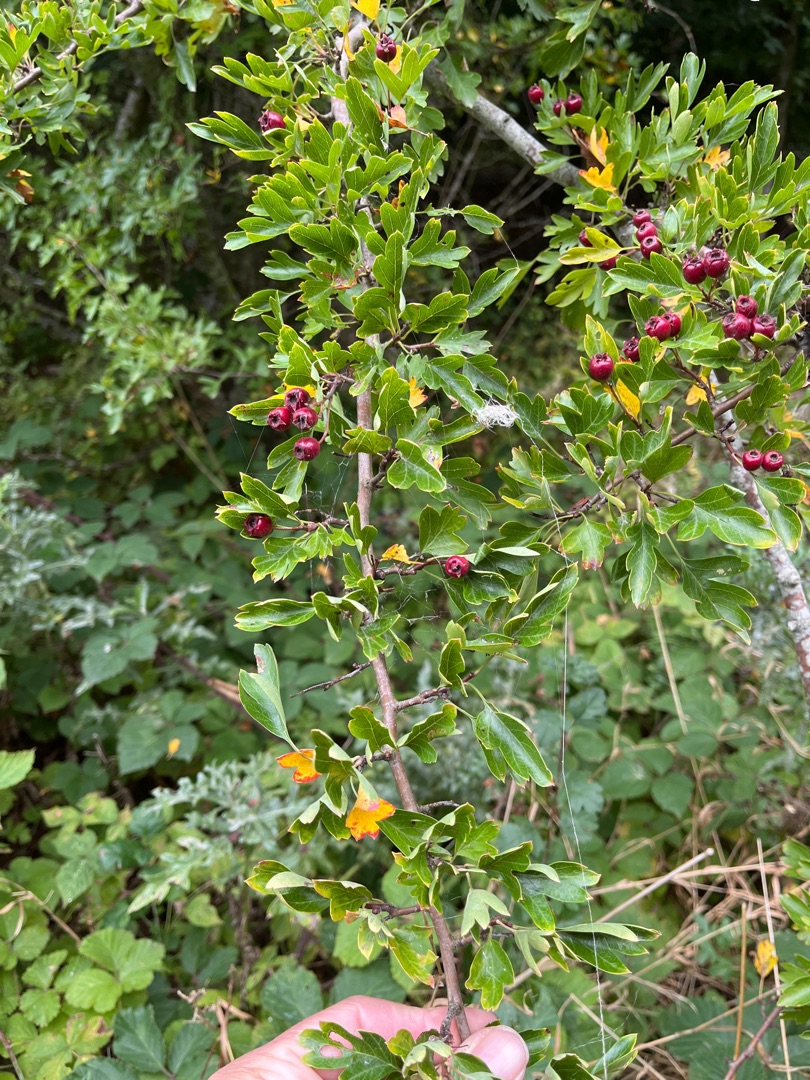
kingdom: Plantae
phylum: Tracheophyta
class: Magnoliopsida
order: Rosales
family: Rosaceae
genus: Crataegus
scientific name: Crataegus monogyna
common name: Engriflet hvidtjørn
